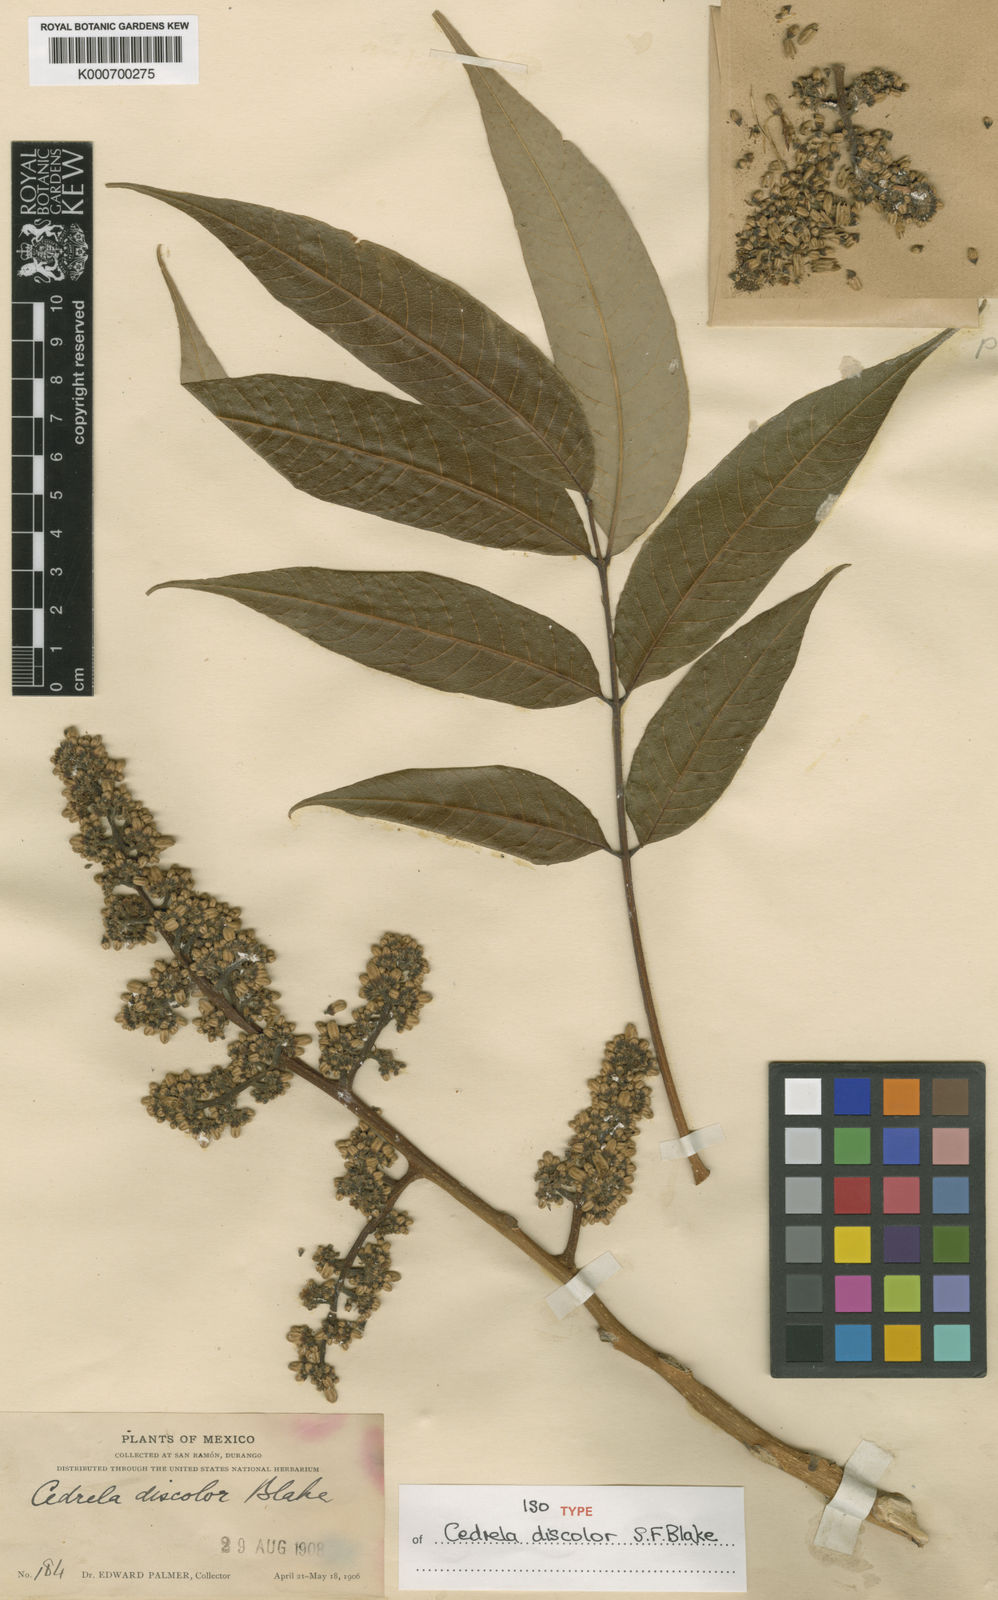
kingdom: Plantae
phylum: Tracheophyta
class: Magnoliopsida
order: Sapindales
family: Meliaceae
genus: Cedrela
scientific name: Cedrela oaxacensis
